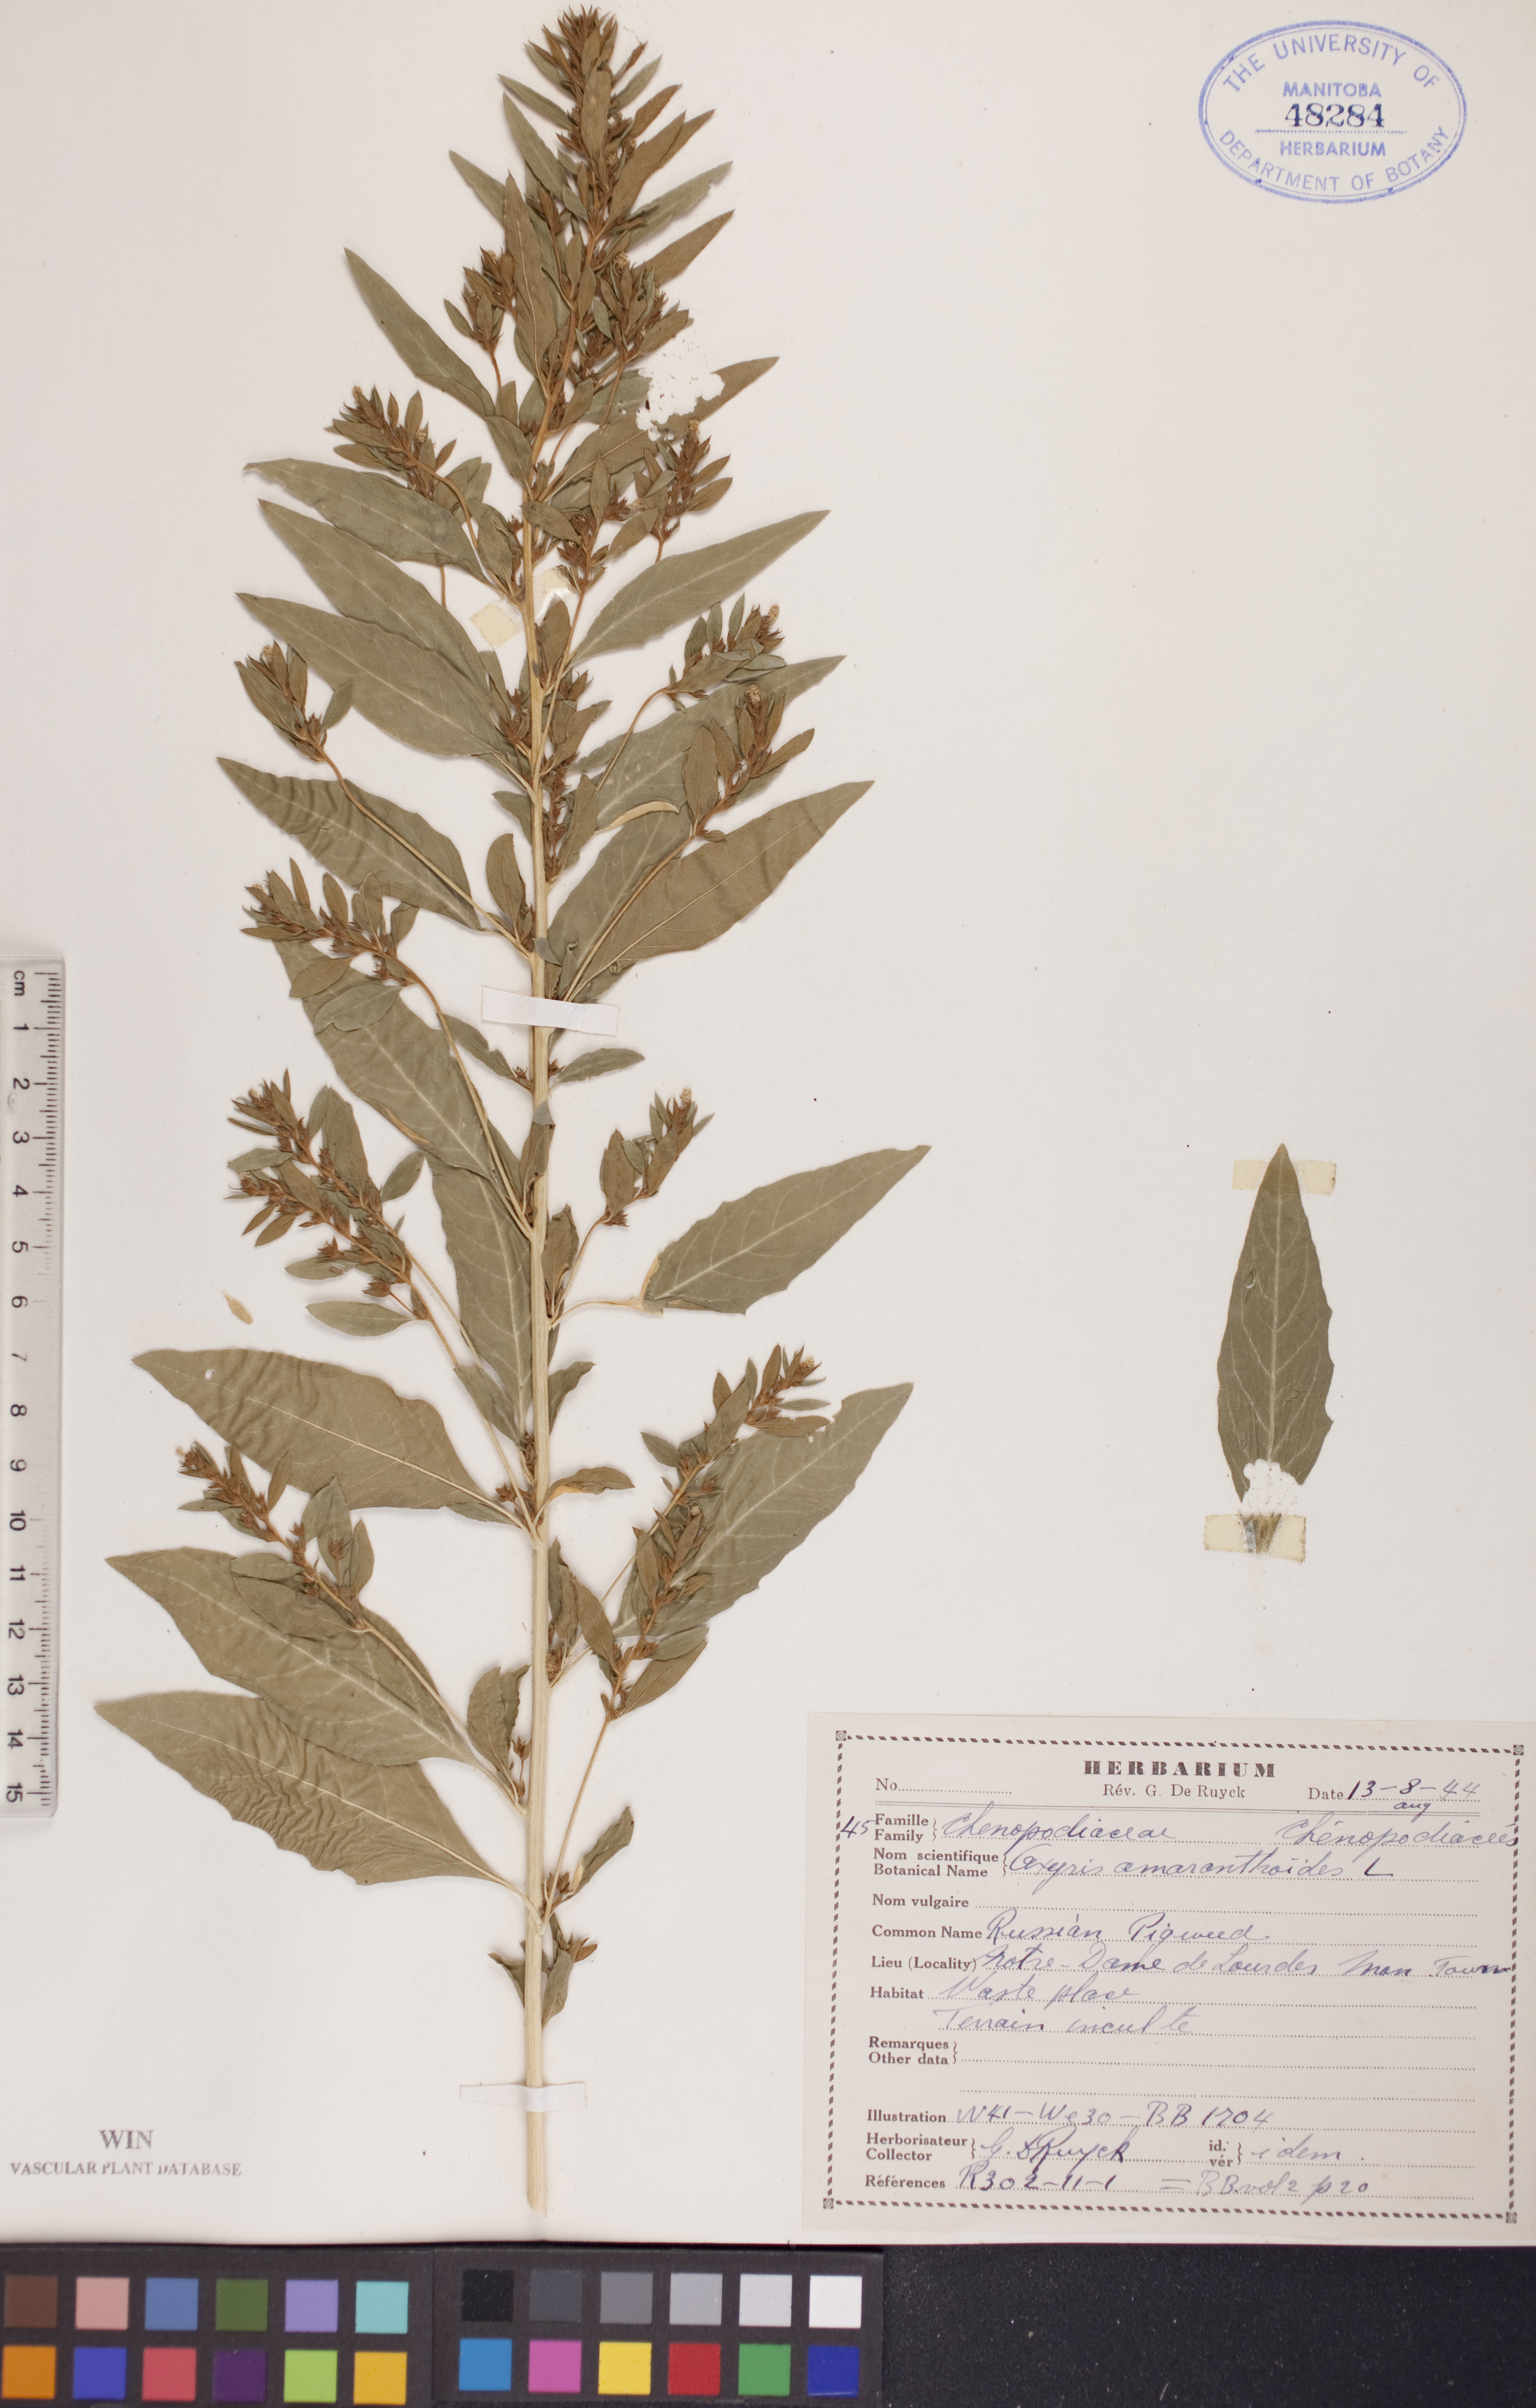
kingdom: Plantae
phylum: Tracheophyta
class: Magnoliopsida
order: Caryophyllales
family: Amaranthaceae
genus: Axyris
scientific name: Axyris amaranthoides
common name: Russian pigweed
